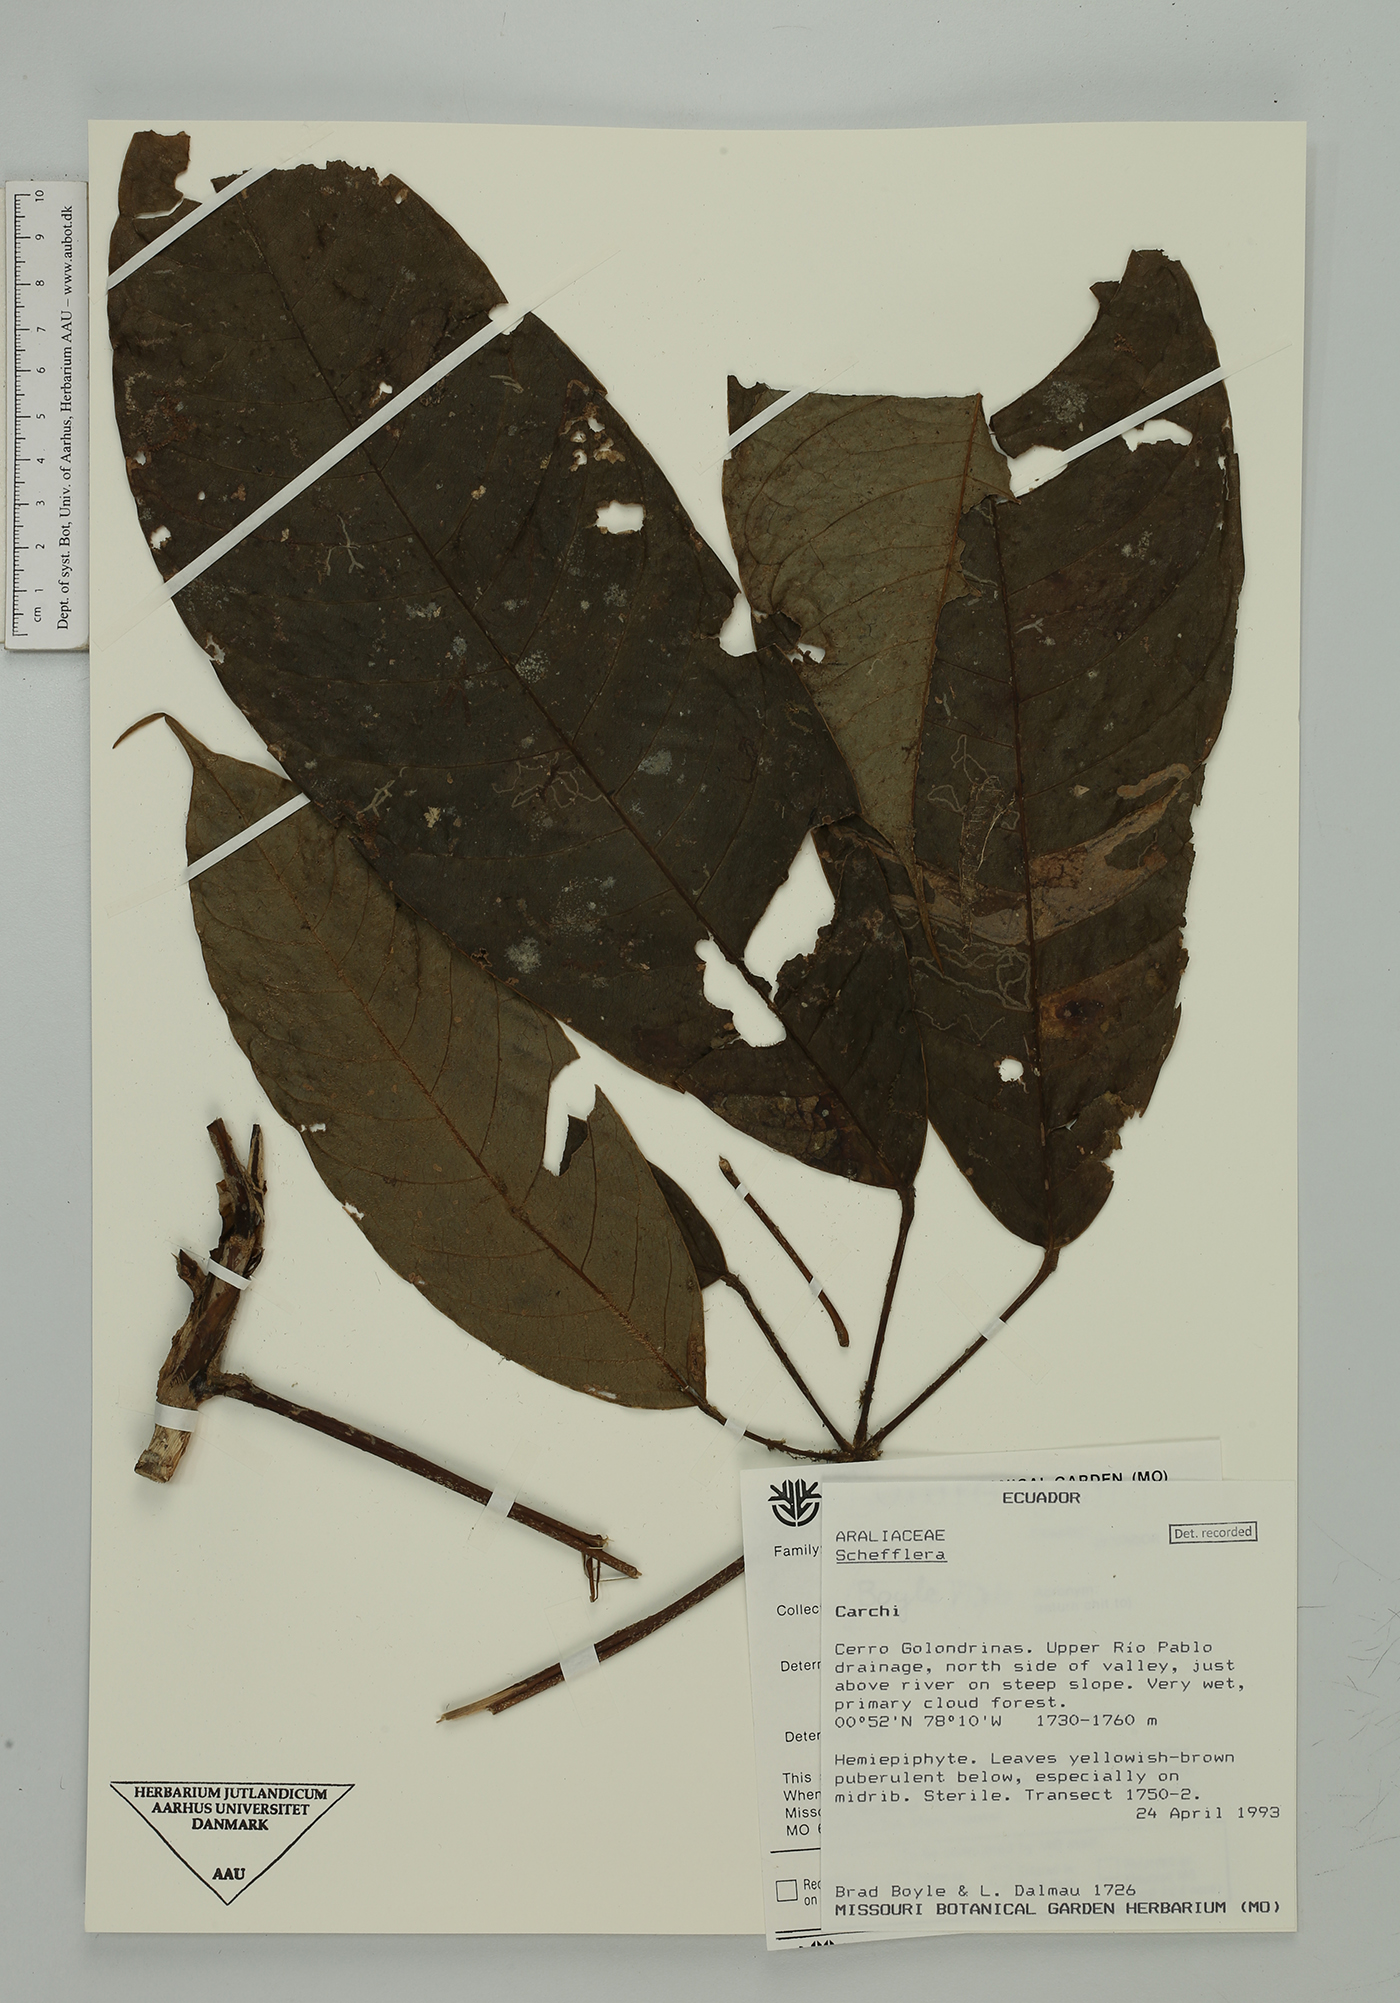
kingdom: Plantae
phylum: Tracheophyta
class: Magnoliopsida
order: Apiales
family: Araliaceae
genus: Sciodaphyllum
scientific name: Sciodaphyllum
